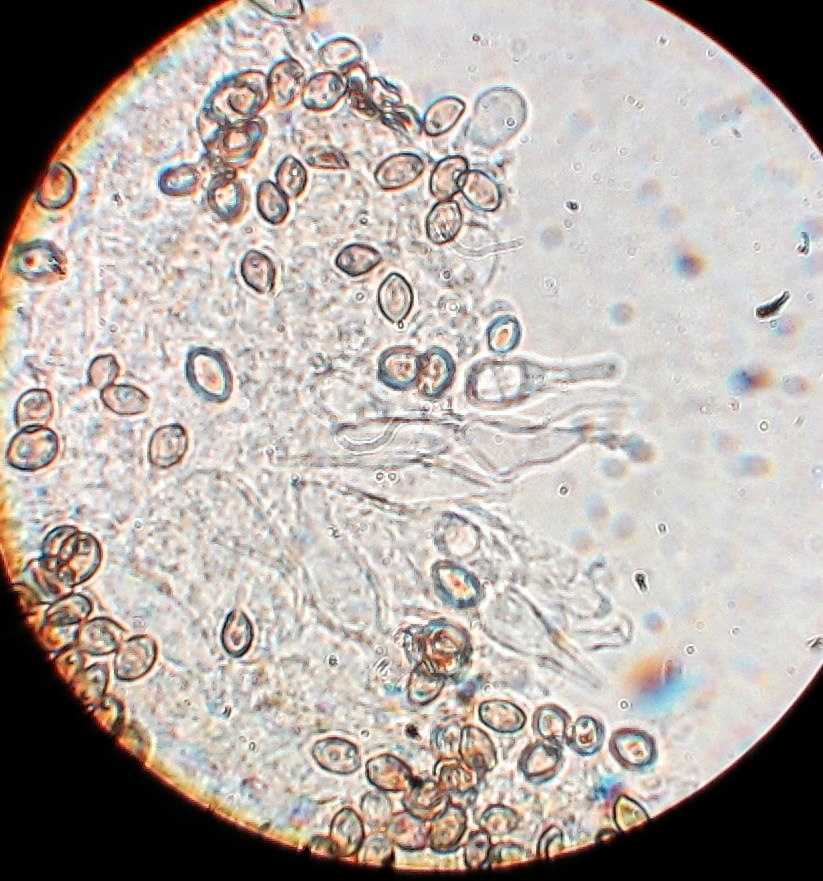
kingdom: Fungi
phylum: Basidiomycota
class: Agaricomycetes
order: Agaricales
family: Strophariaceae
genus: Deconica
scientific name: Deconica inquilina
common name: græs-stråhat
